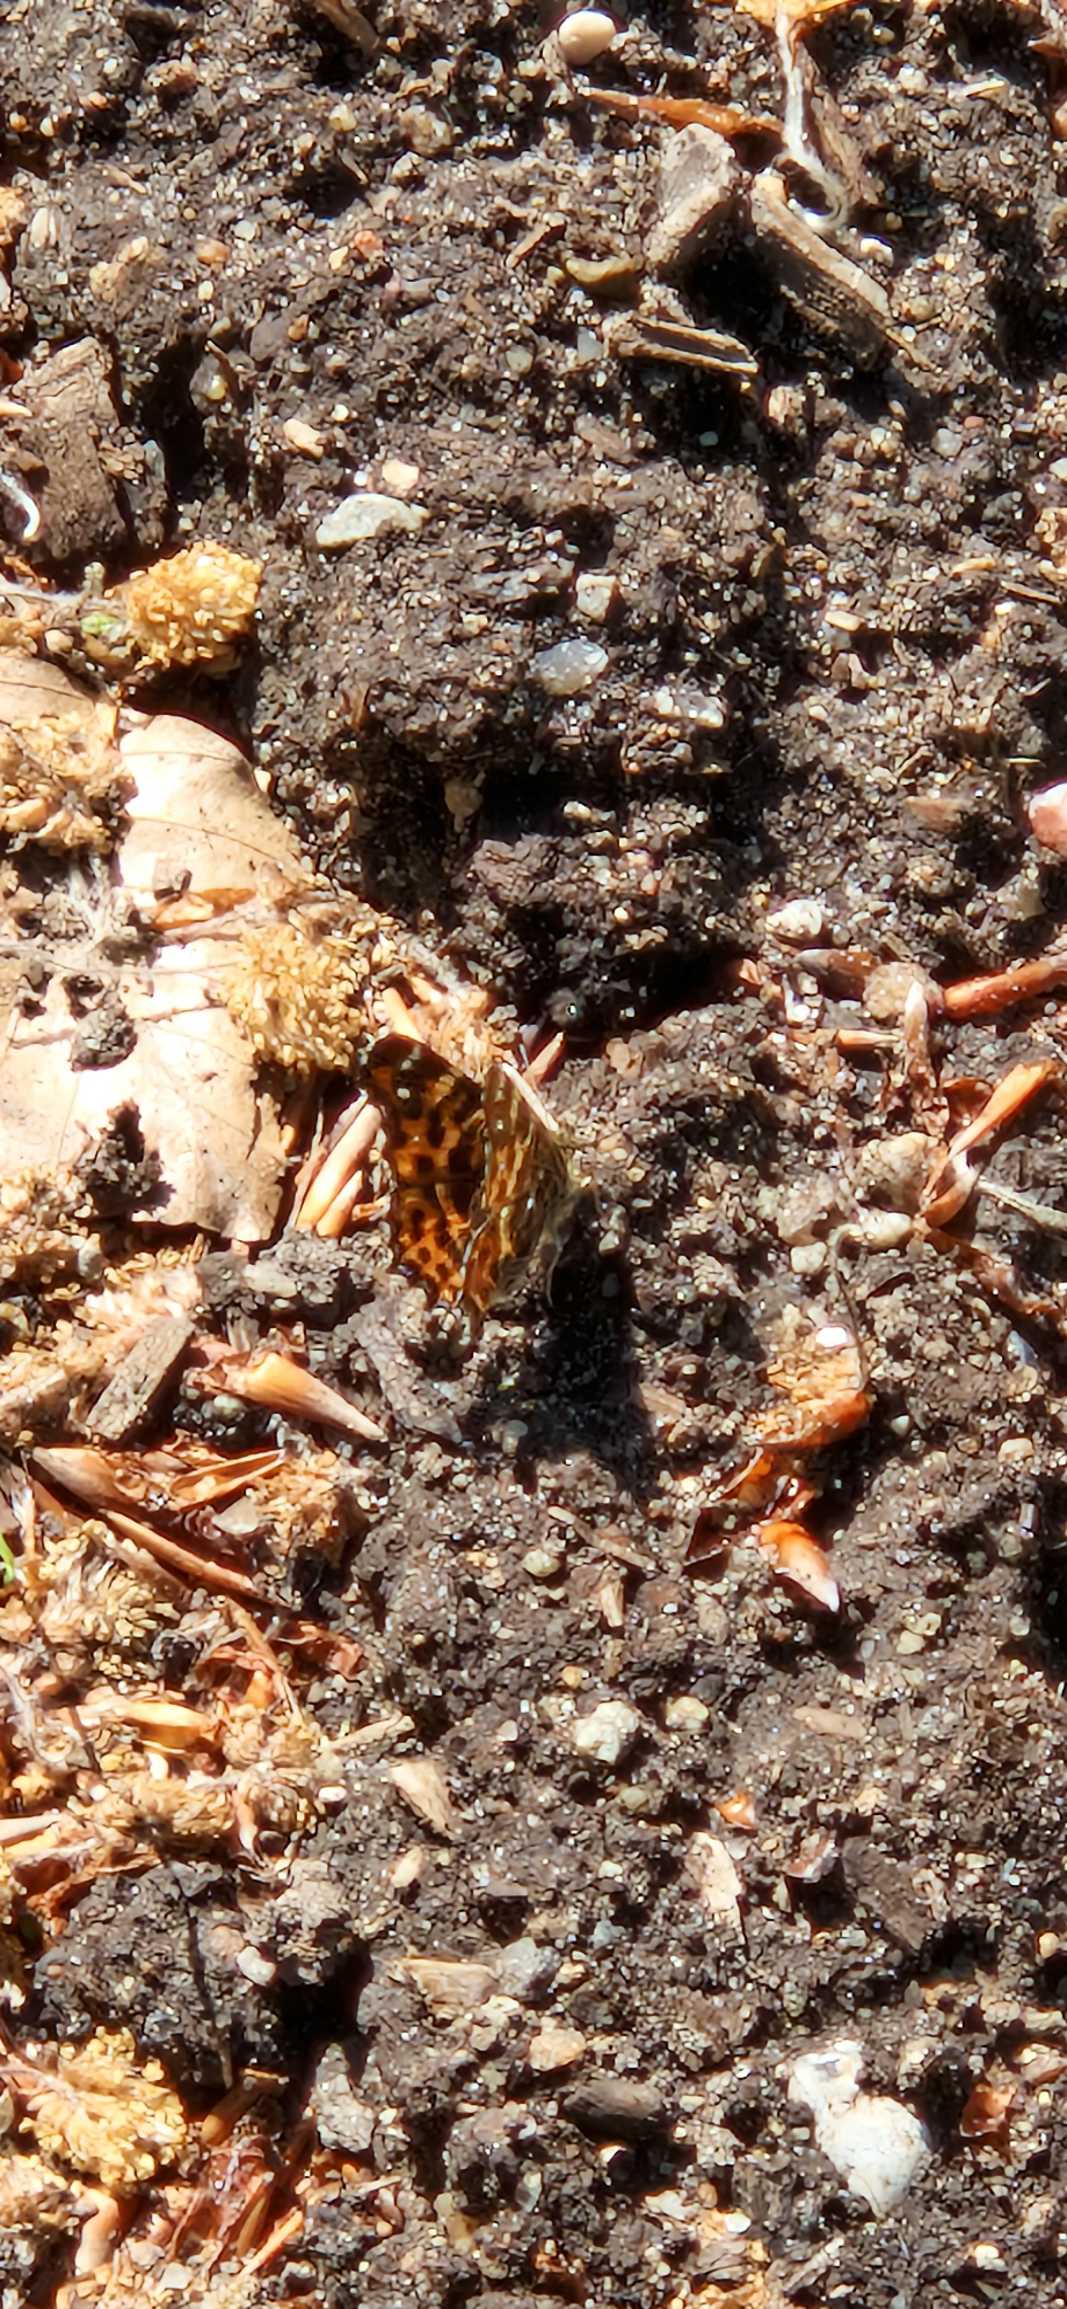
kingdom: Animalia
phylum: Arthropoda
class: Insecta
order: Lepidoptera
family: Nymphalidae
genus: Araschnia
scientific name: Araschnia levana
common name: Nældesommerfugl
